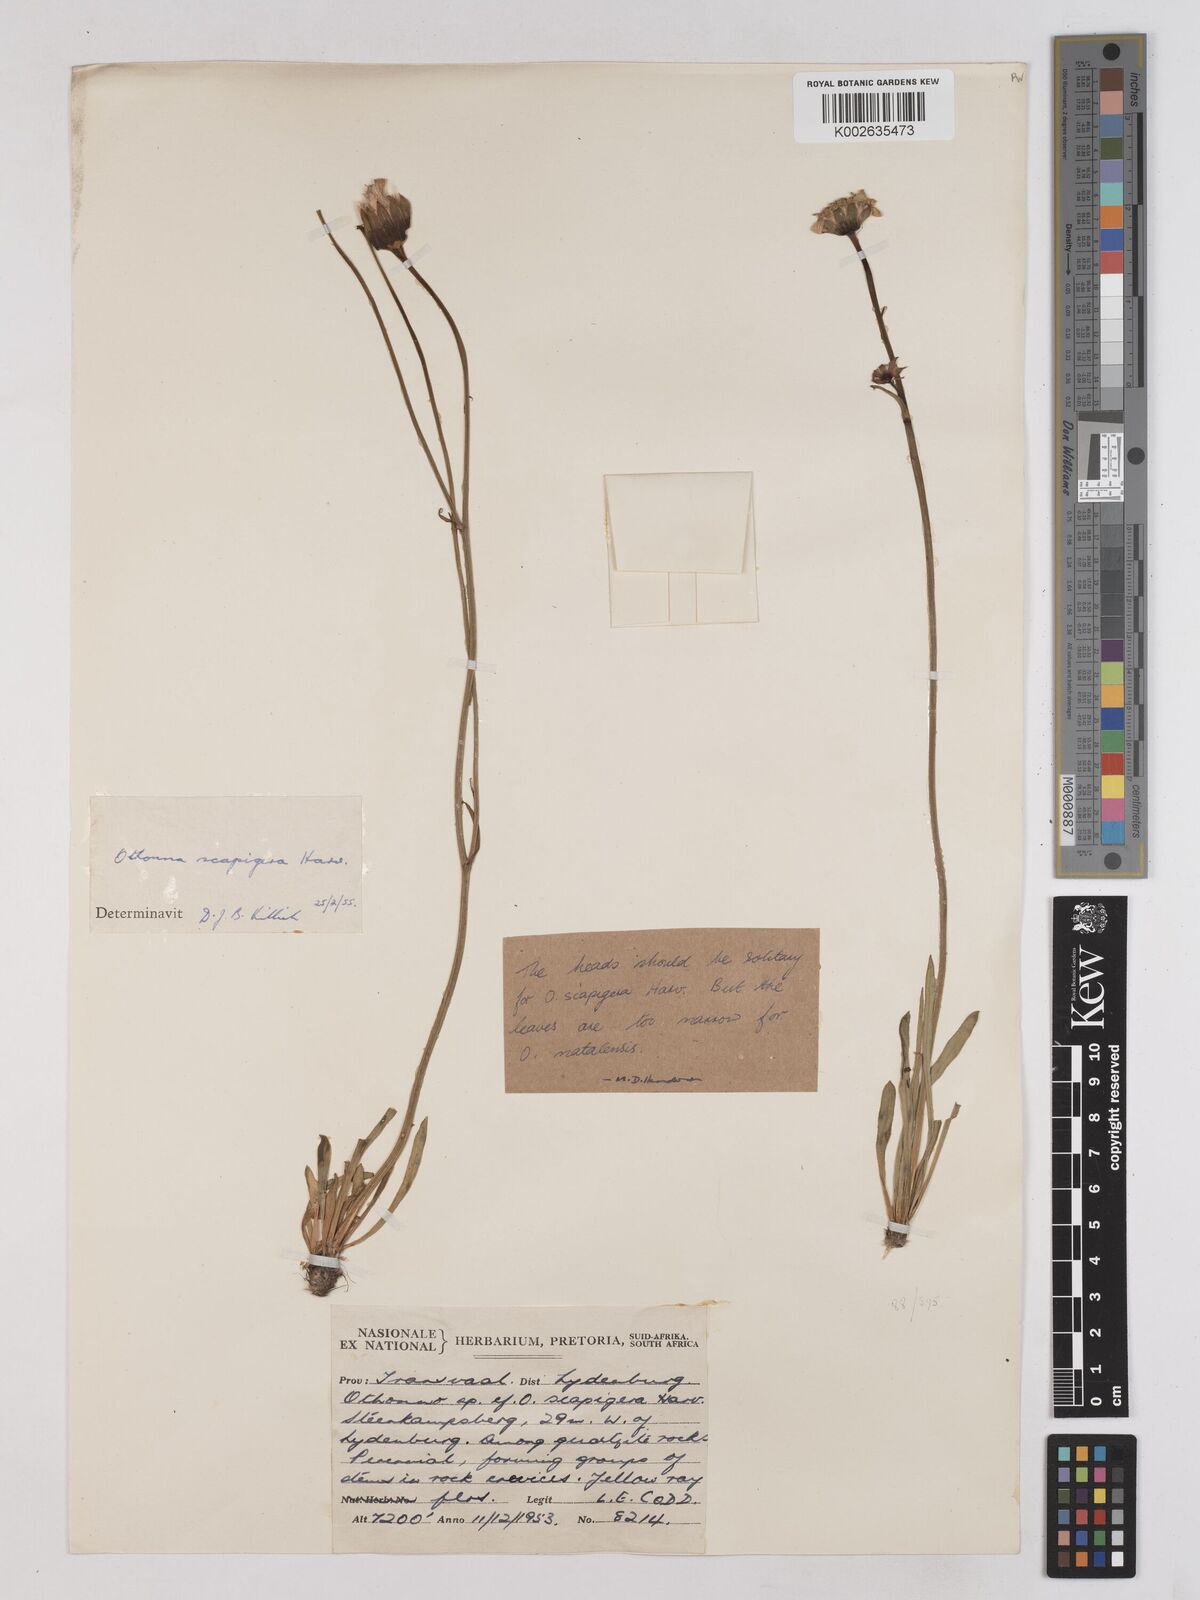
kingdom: Plantae
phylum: Tracheophyta
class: Magnoliopsida
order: Asterales
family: Asteraceae
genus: Othonna
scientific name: Othonna auriculifolia
